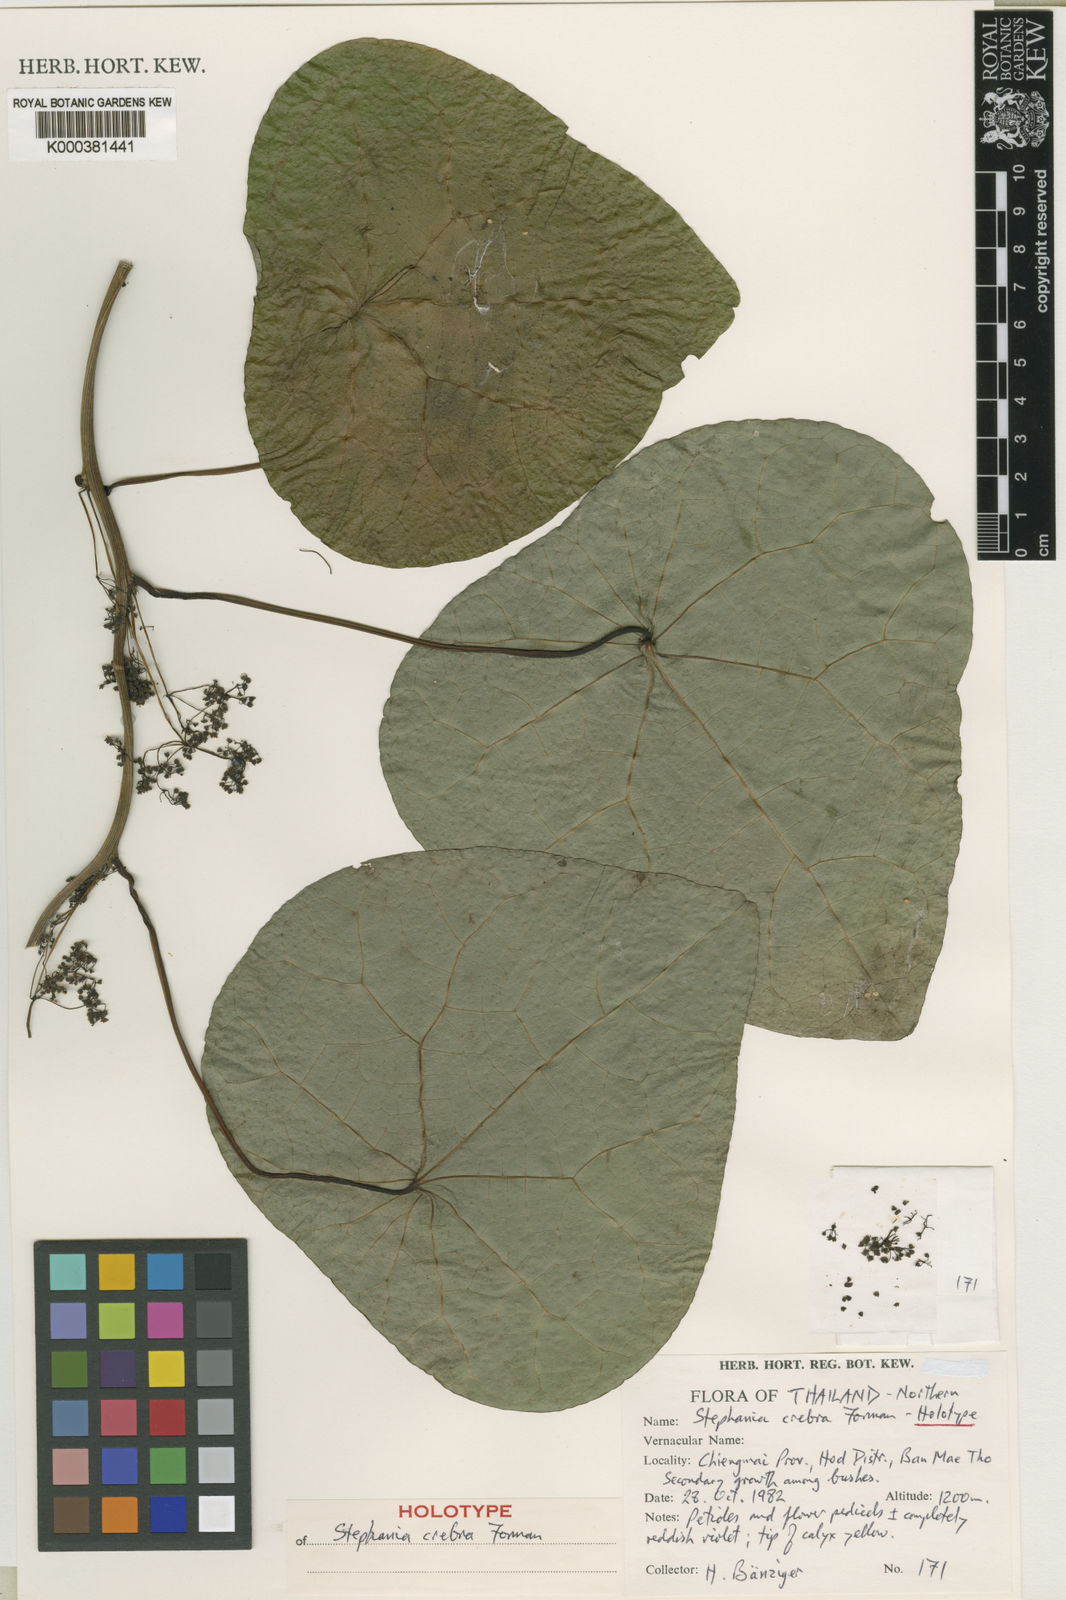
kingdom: Plantae
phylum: Tracheophyta
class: Magnoliopsida
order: Ranunculales
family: Menispermaceae
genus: Stephania
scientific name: Stephania crebra
